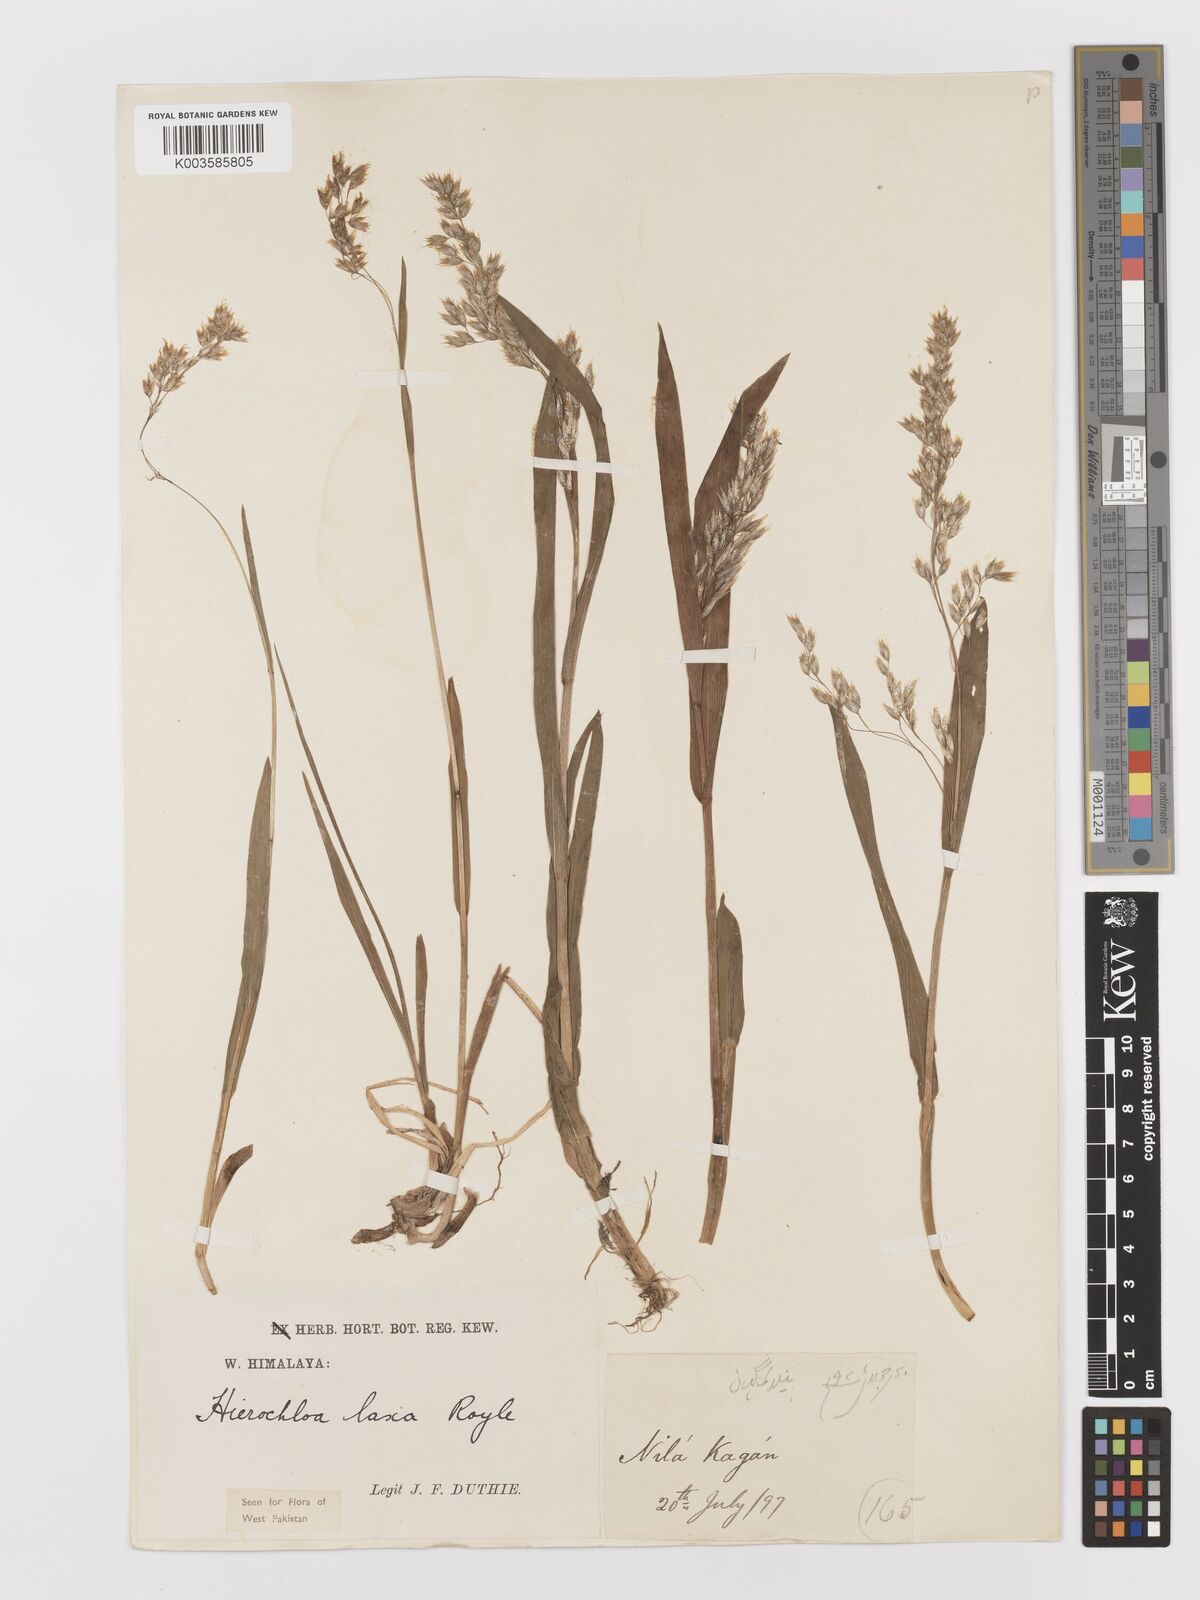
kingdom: Plantae
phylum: Tracheophyta
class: Liliopsida
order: Poales
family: Poaceae
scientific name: Poaceae
